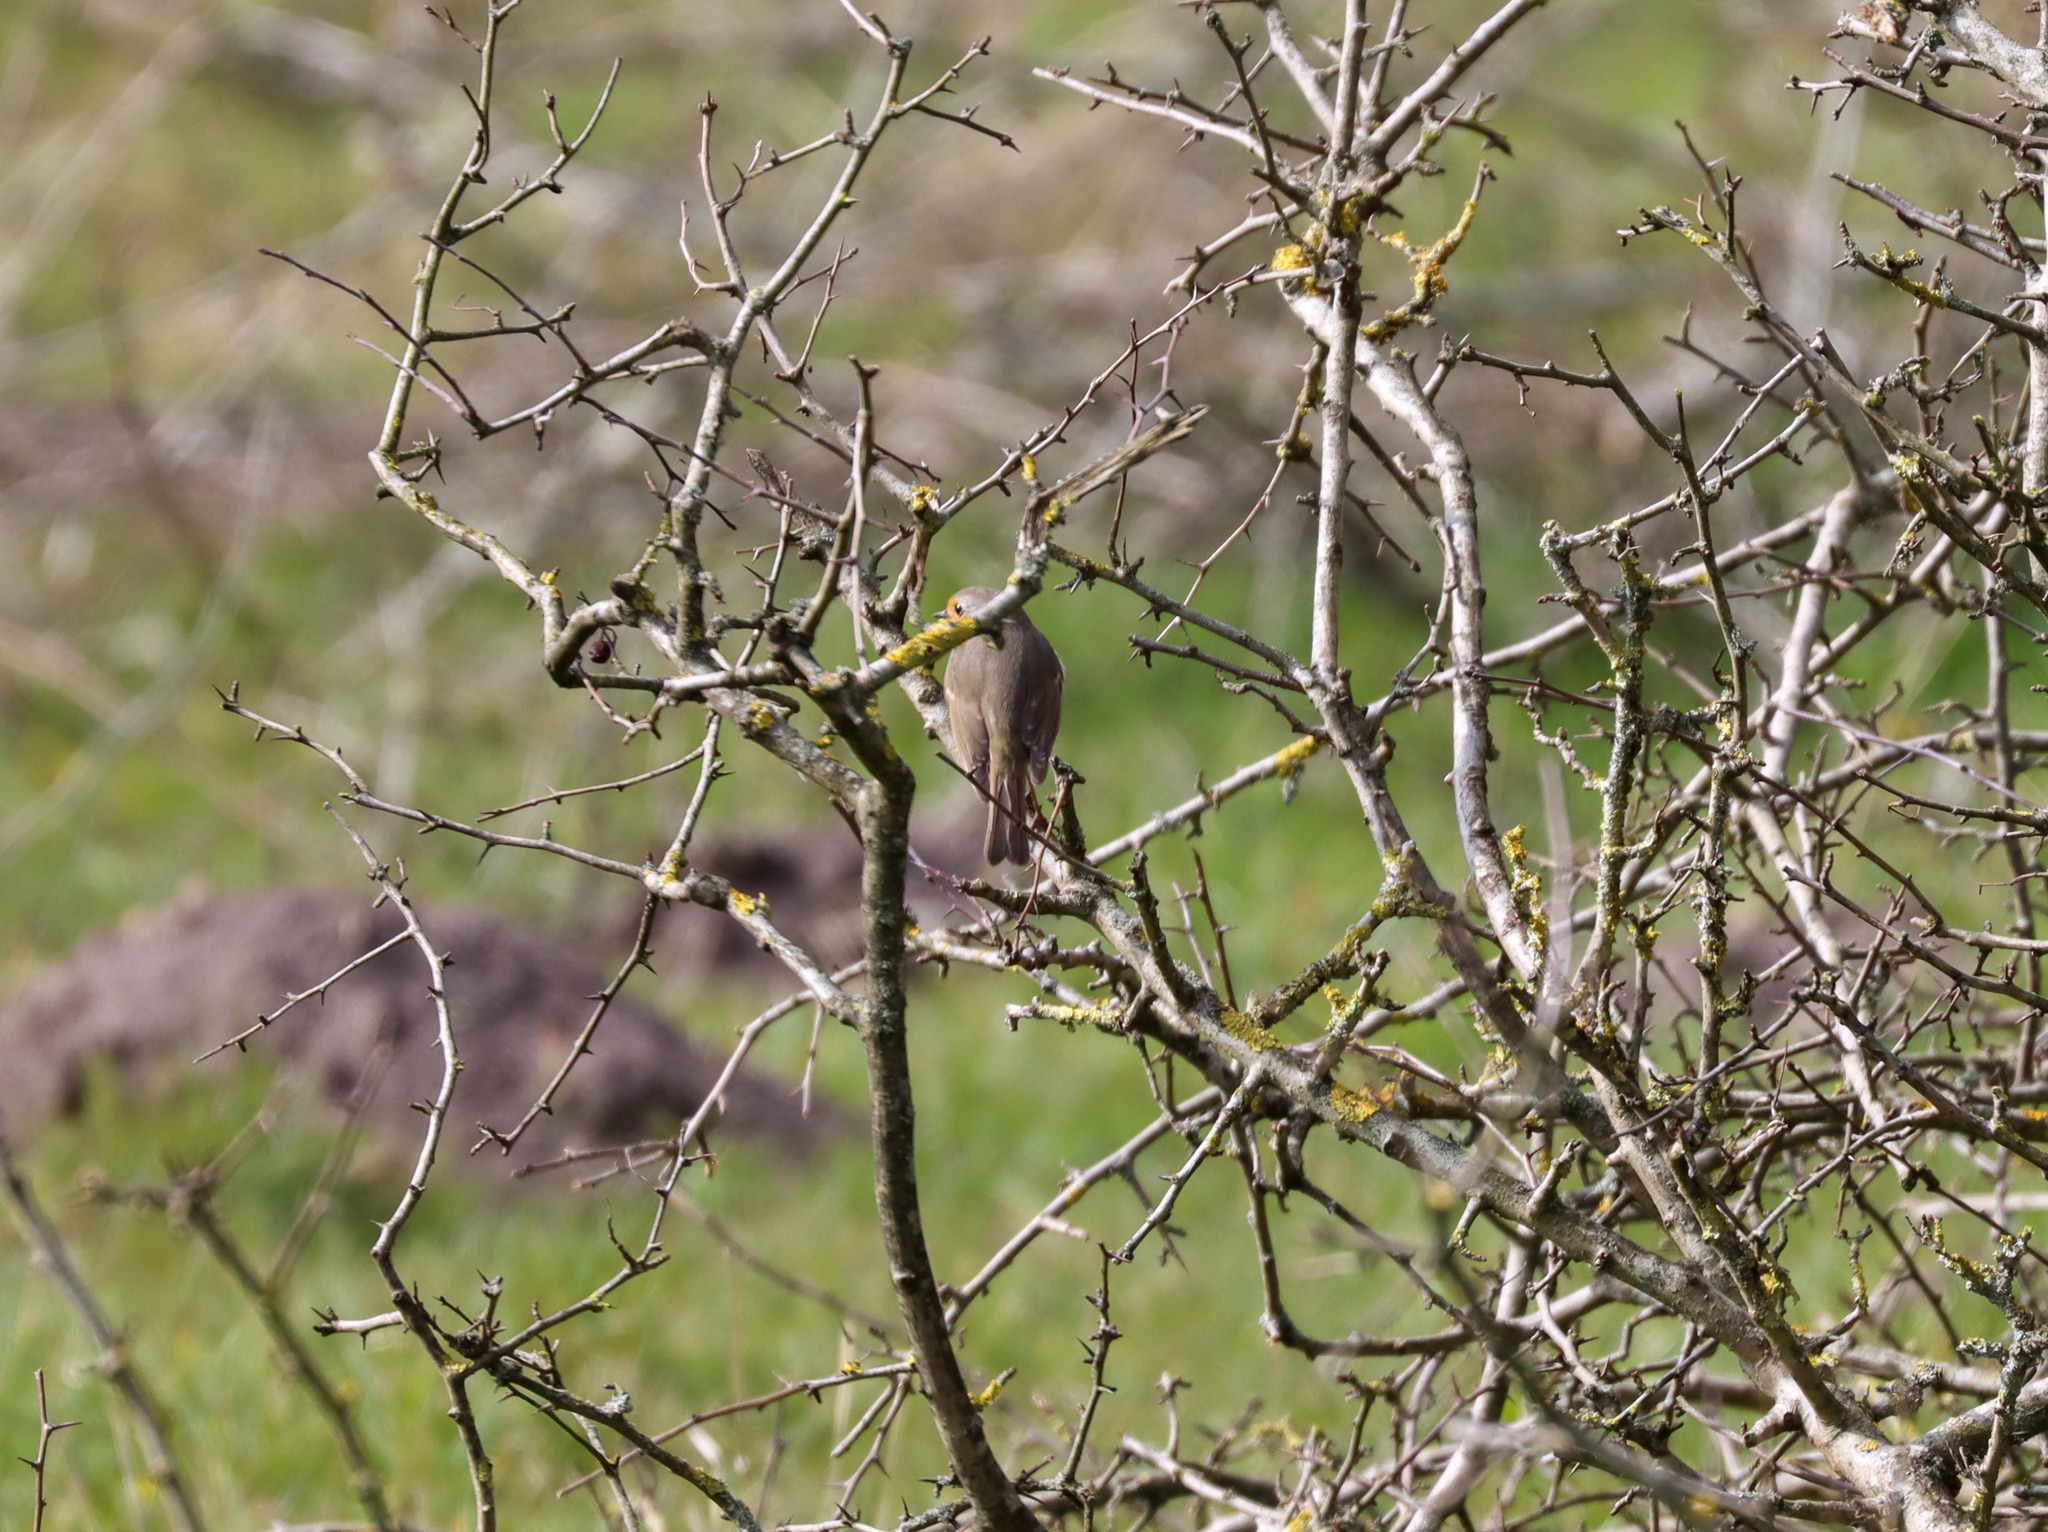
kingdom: Animalia
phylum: Chordata
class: Aves
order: Passeriformes
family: Muscicapidae
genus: Erithacus
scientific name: Erithacus rubecula
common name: Rødhals/rødkælk
